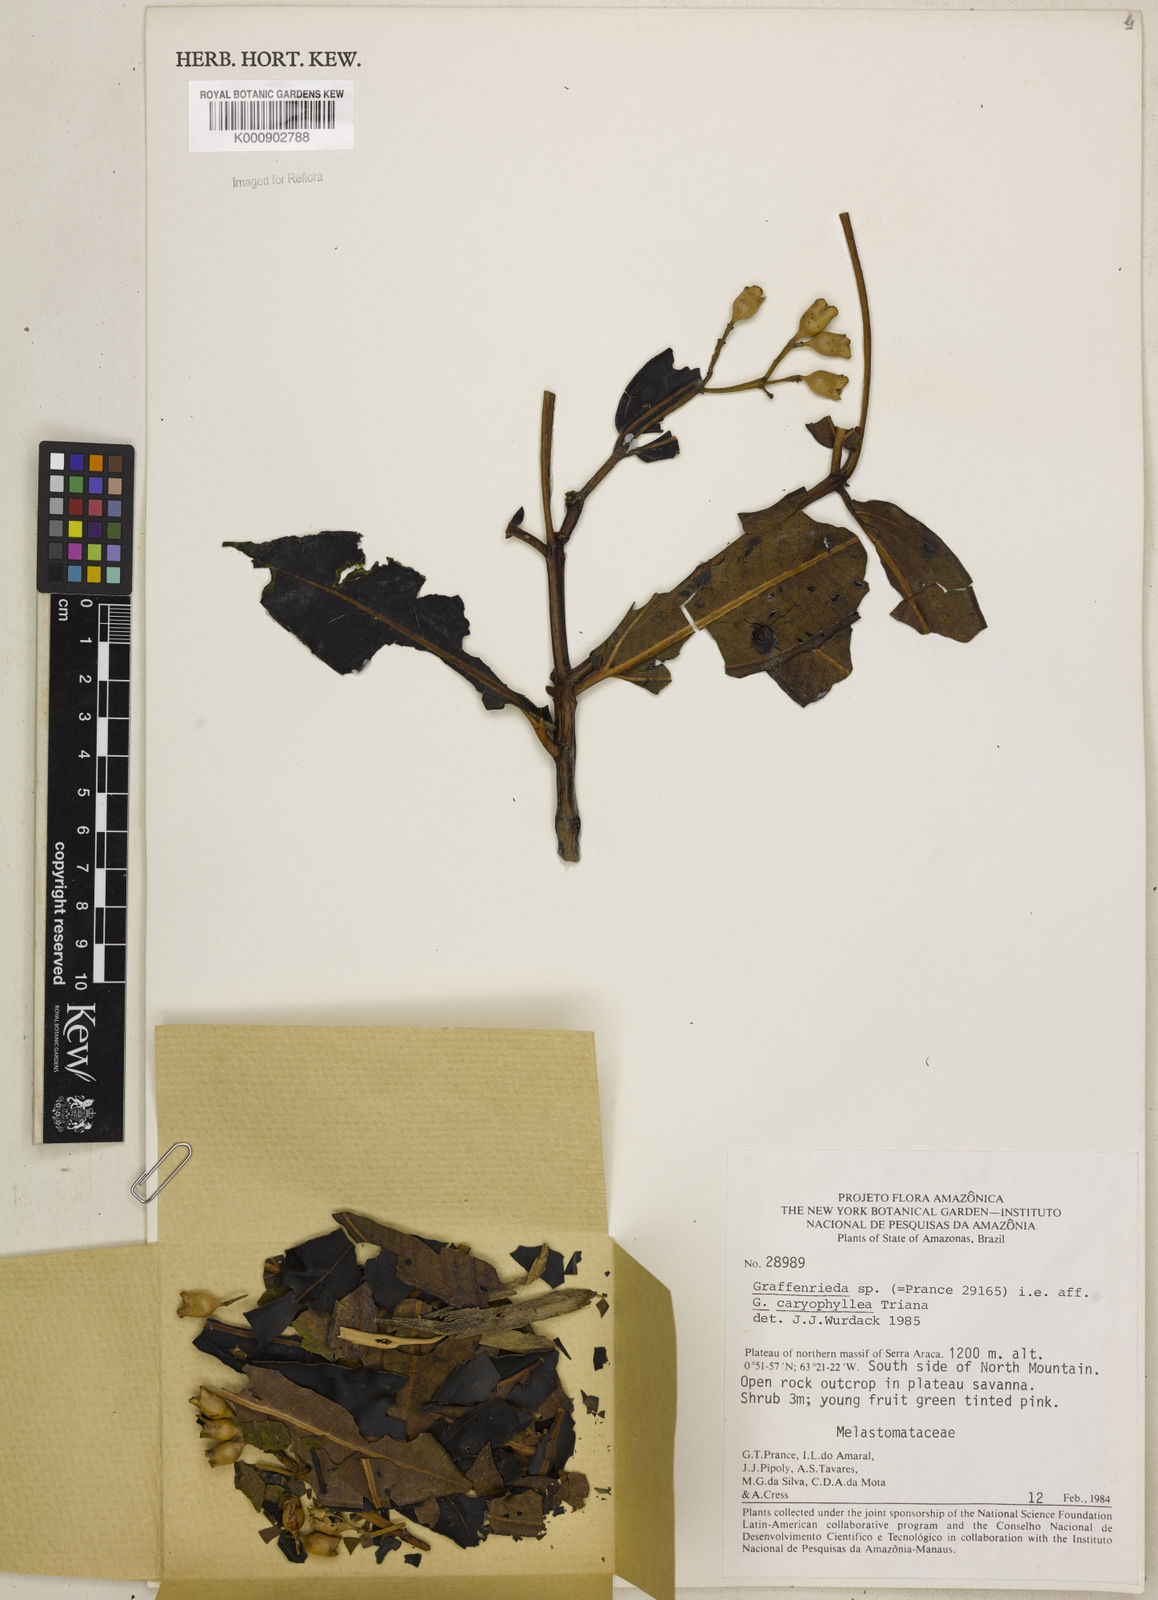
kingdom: Plantae
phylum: Tracheophyta
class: Magnoliopsida
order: Myrtales
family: Melastomataceae
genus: Graffenrieda
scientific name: Graffenrieda laevicarpa
